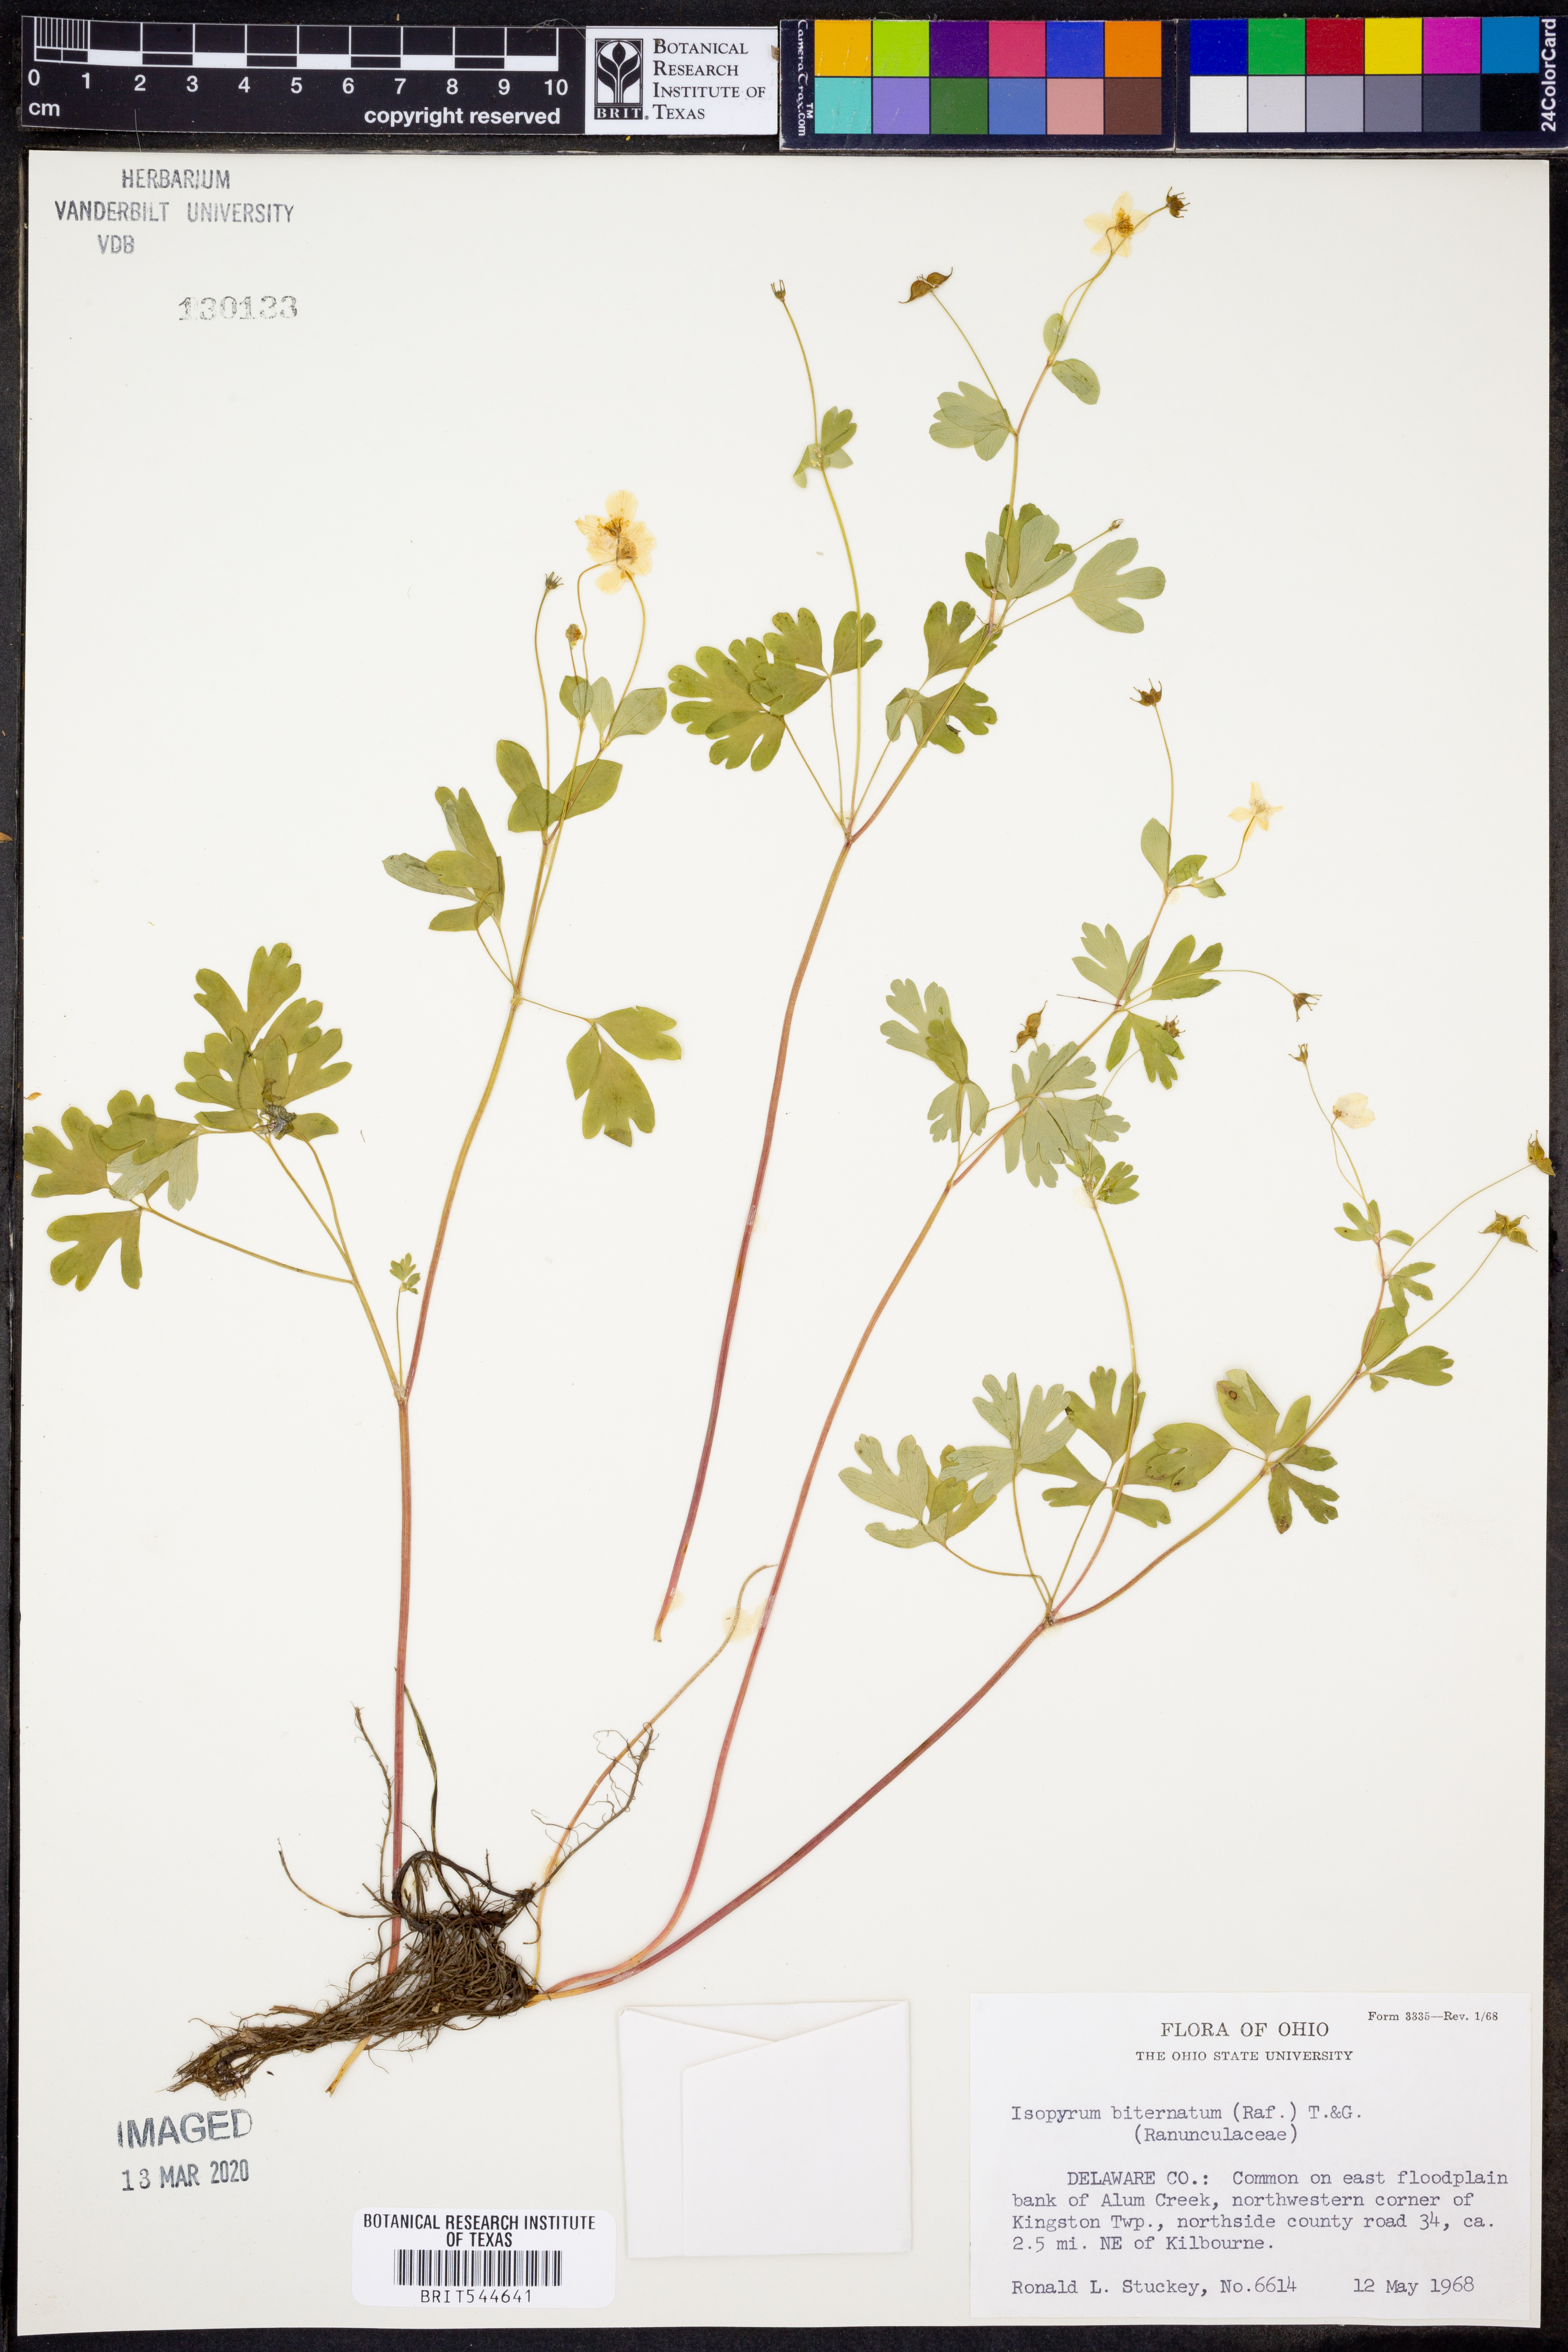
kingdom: Plantae
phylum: Tracheophyta
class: Magnoliopsida
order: Ranunculales
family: Ranunculaceae
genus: Enemion
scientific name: Enemion biternatum
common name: Eastern false rue-anemone
